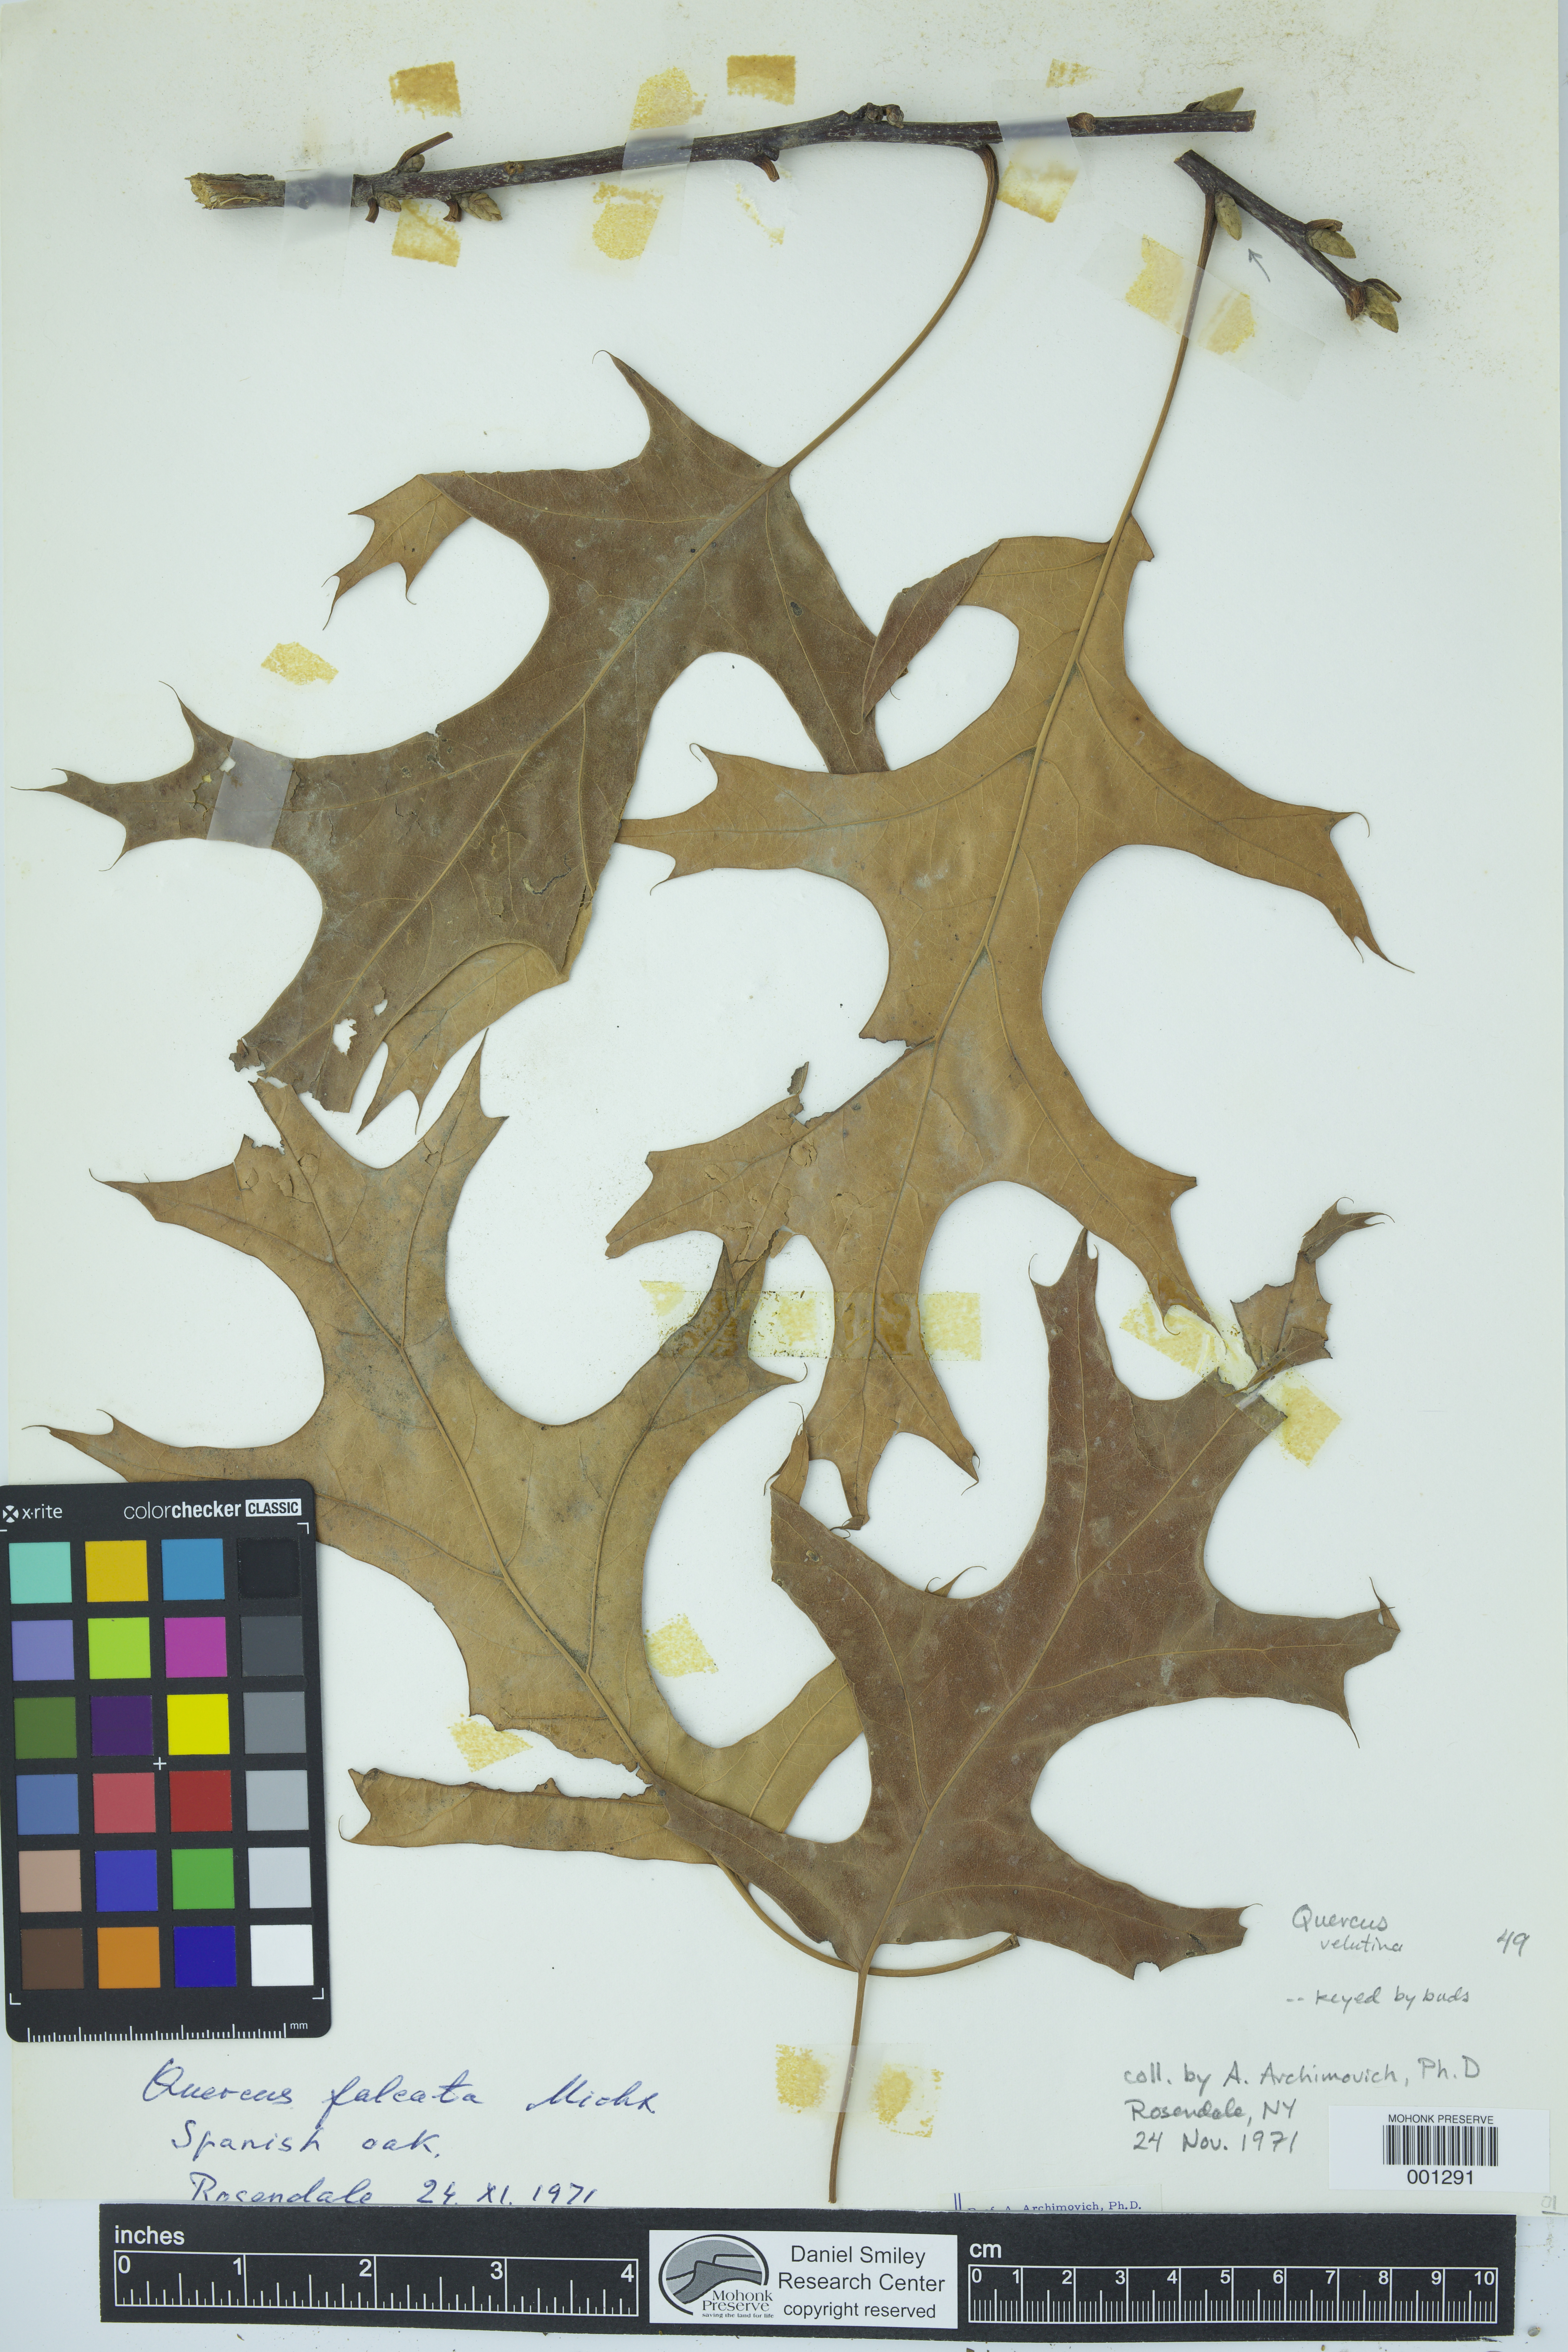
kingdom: Plantae
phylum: Tracheophyta
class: Magnoliopsida
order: Fagales
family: Fagaceae
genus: Quercus
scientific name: Quercus velutina
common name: Black oak
